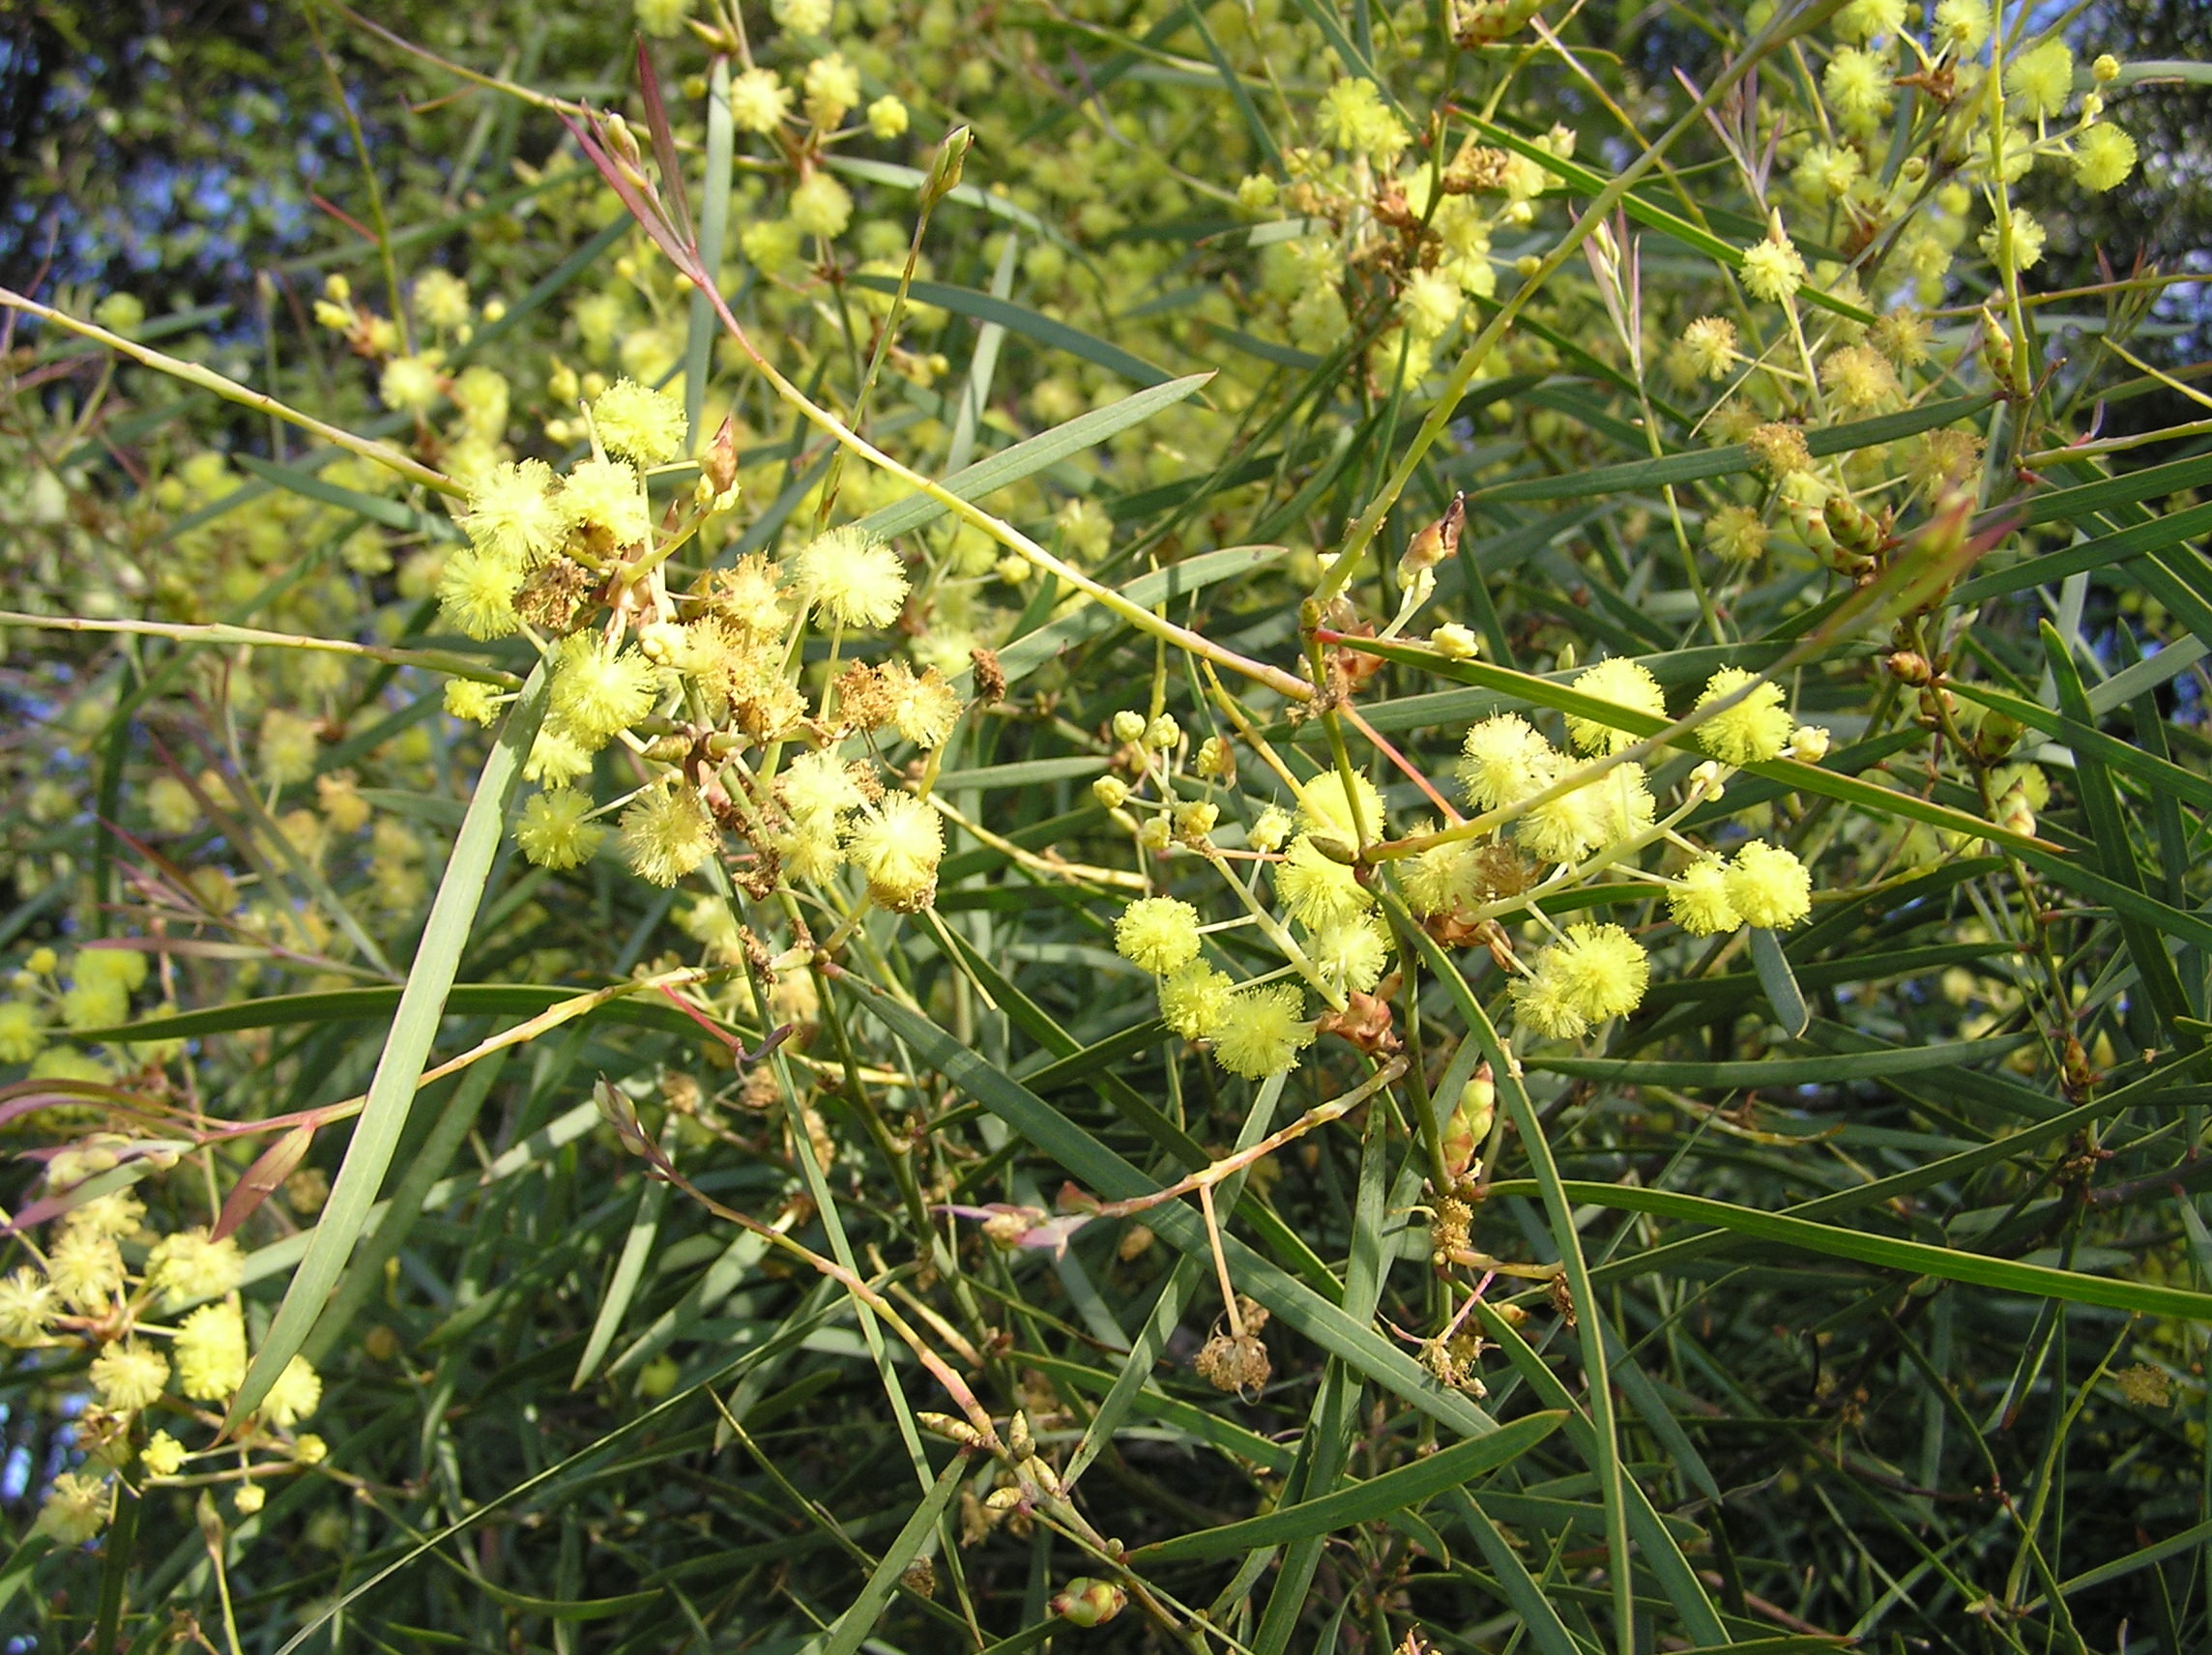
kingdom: Plantae
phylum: Tracheophyta
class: Magnoliopsida
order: Fabales
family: Fabaceae
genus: Acacia
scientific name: Acacia linearifolia
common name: Stringybark wattle
